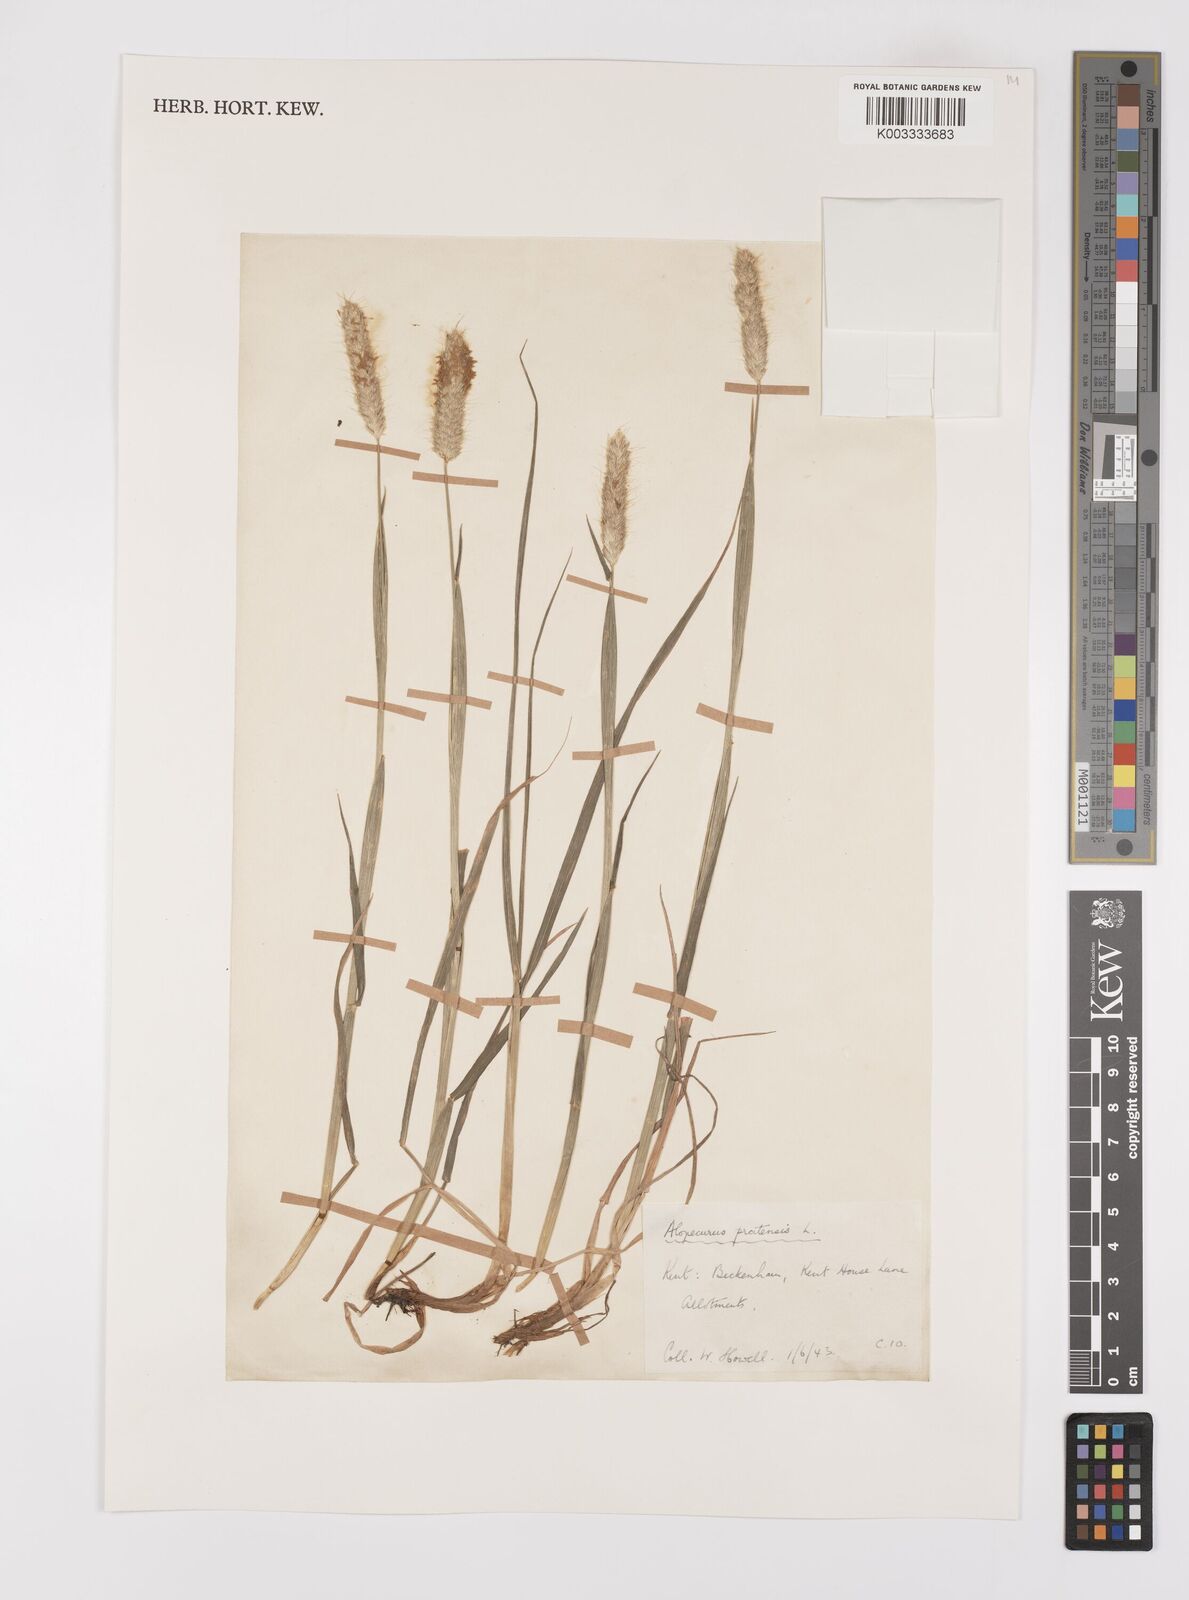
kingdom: Plantae
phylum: Tracheophyta
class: Liliopsida
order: Poales
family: Poaceae
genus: Alopecurus
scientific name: Alopecurus pratensis
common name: Meadow foxtail
